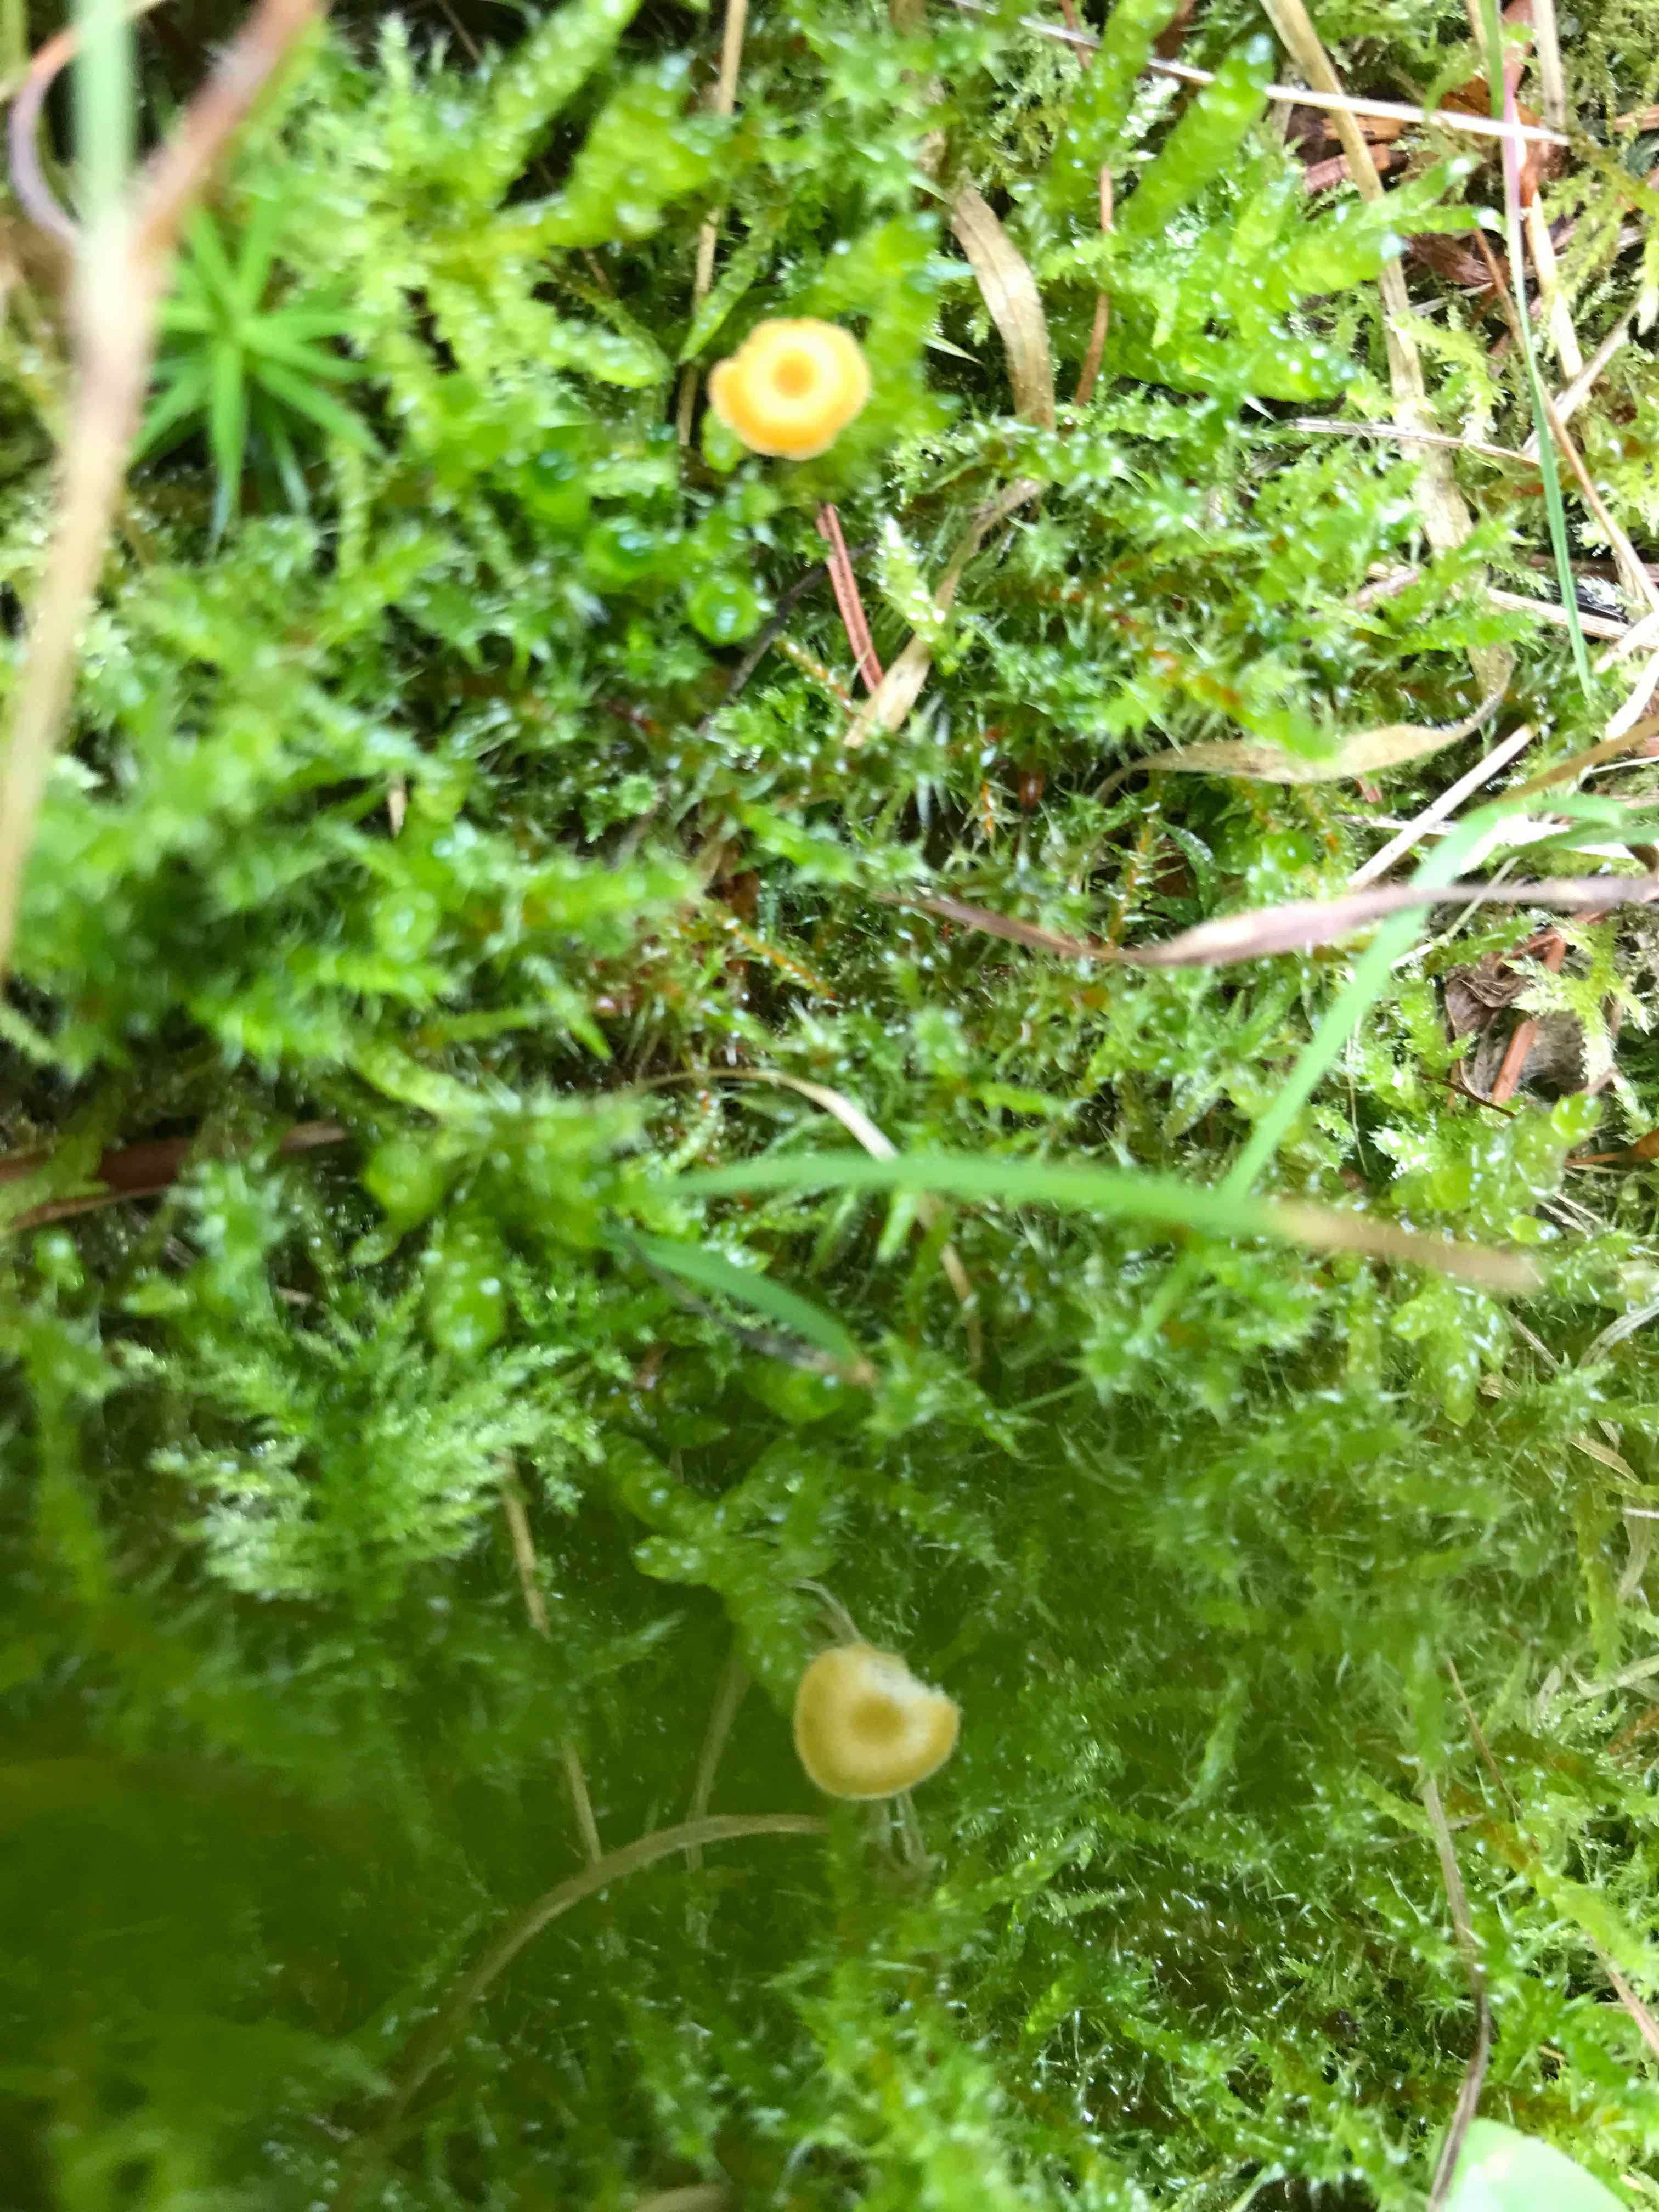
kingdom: Fungi
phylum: Basidiomycota
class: Agaricomycetes
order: Hymenochaetales
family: Rickenellaceae
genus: Rickenella
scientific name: Rickenella fibula
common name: orange mosnavlehat
